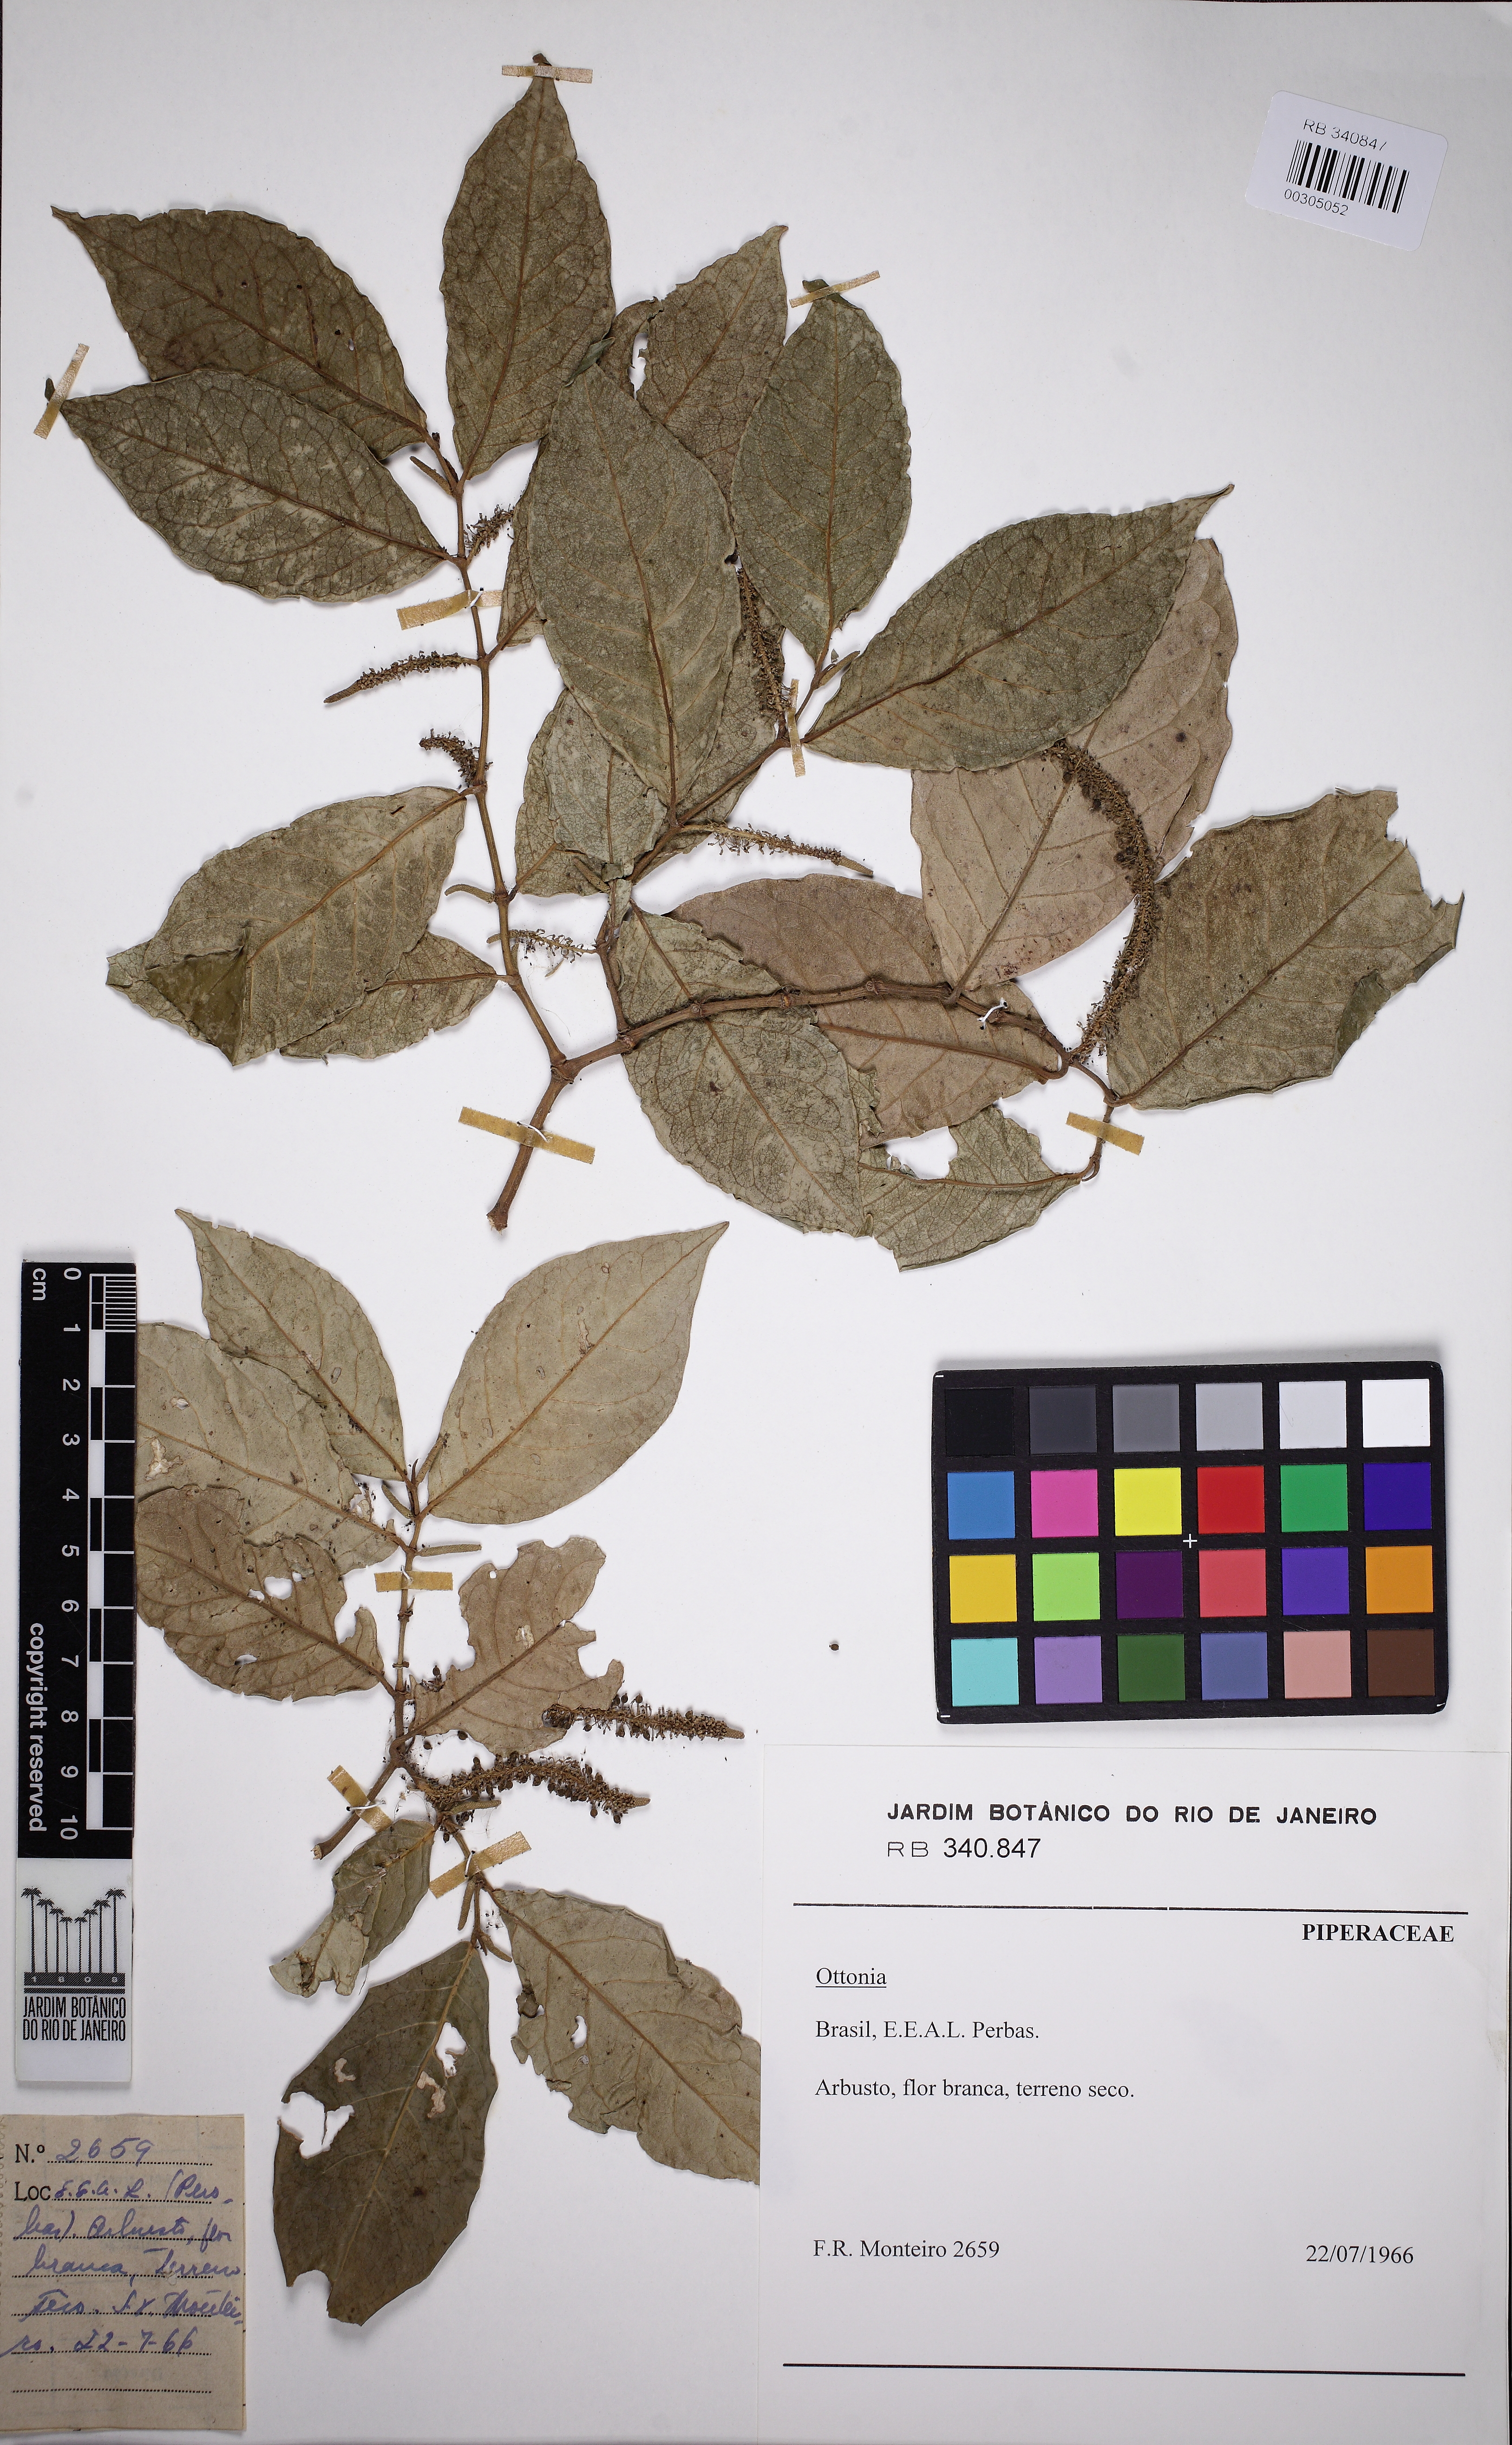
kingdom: Plantae
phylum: Tracheophyta
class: Magnoliopsida
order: Piperales
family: Piperaceae
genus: Piper
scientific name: Piper anisum
